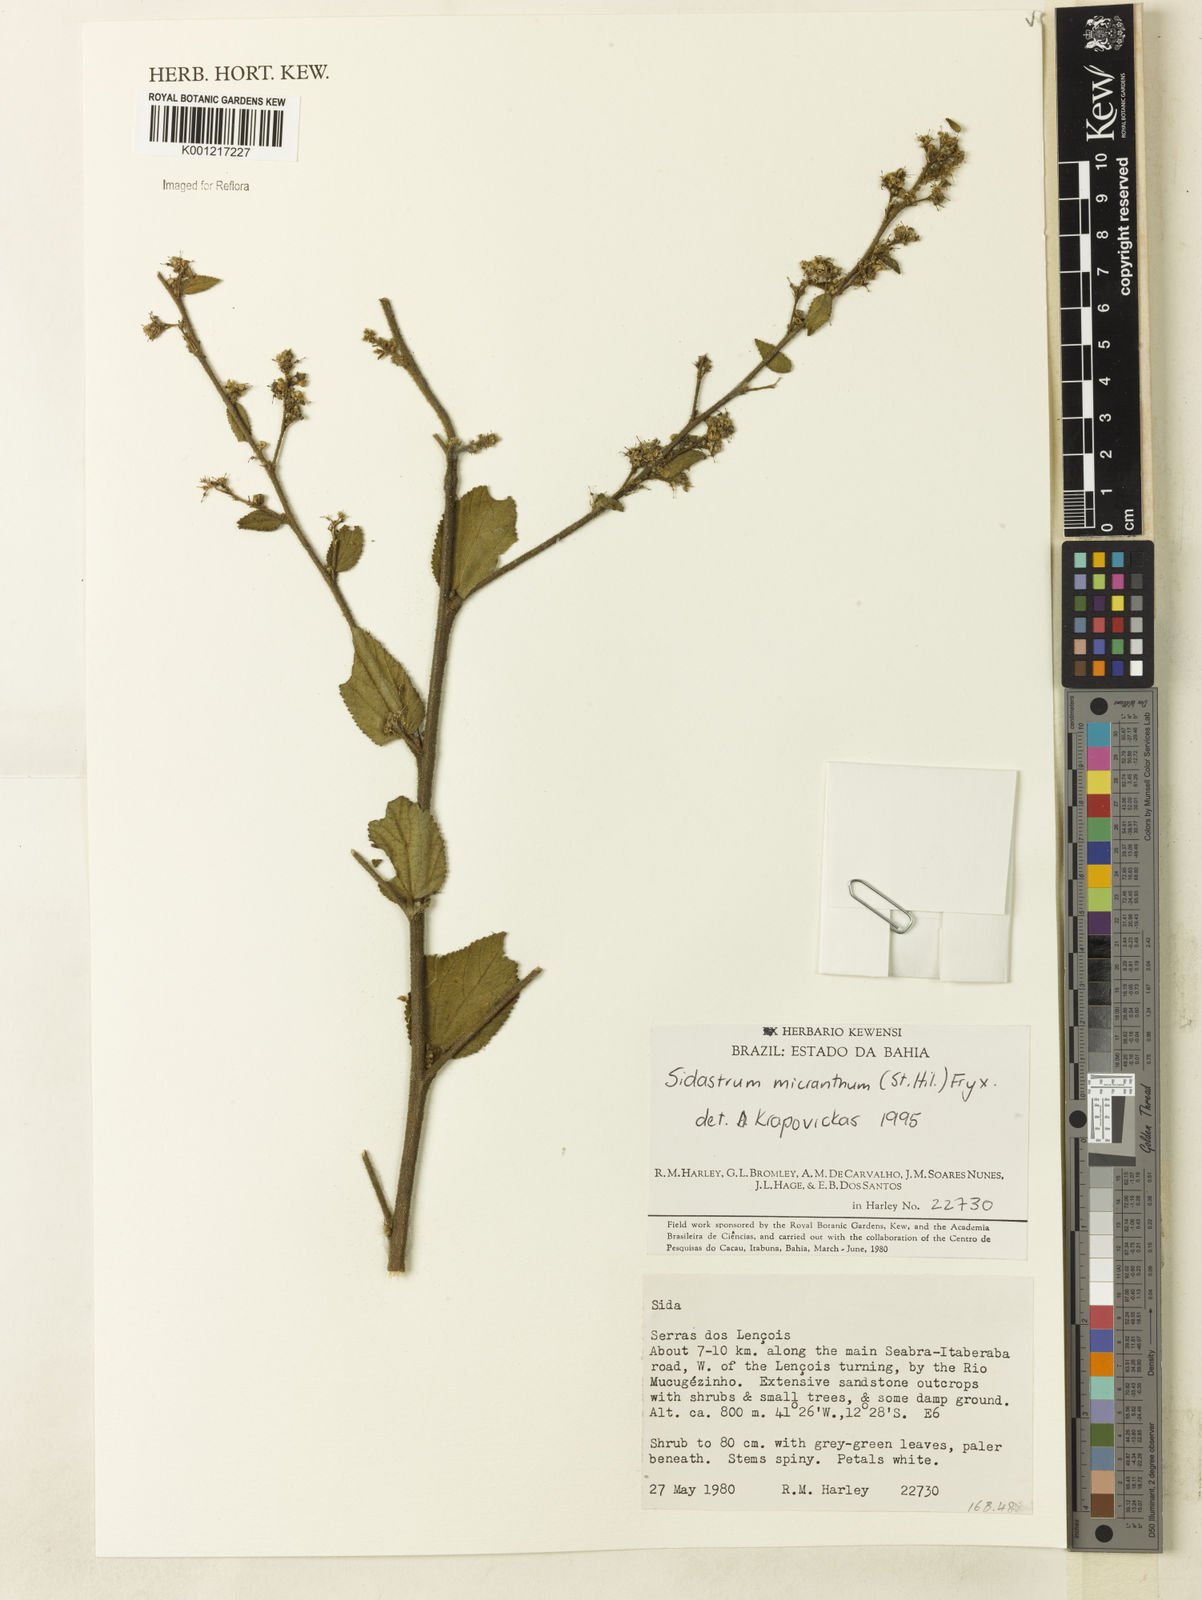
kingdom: Plantae
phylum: Tracheophyta
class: Magnoliopsida
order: Malvales
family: Malvaceae
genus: Sidastrum
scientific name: Sidastrum micranthum
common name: Dainty sandmallow
